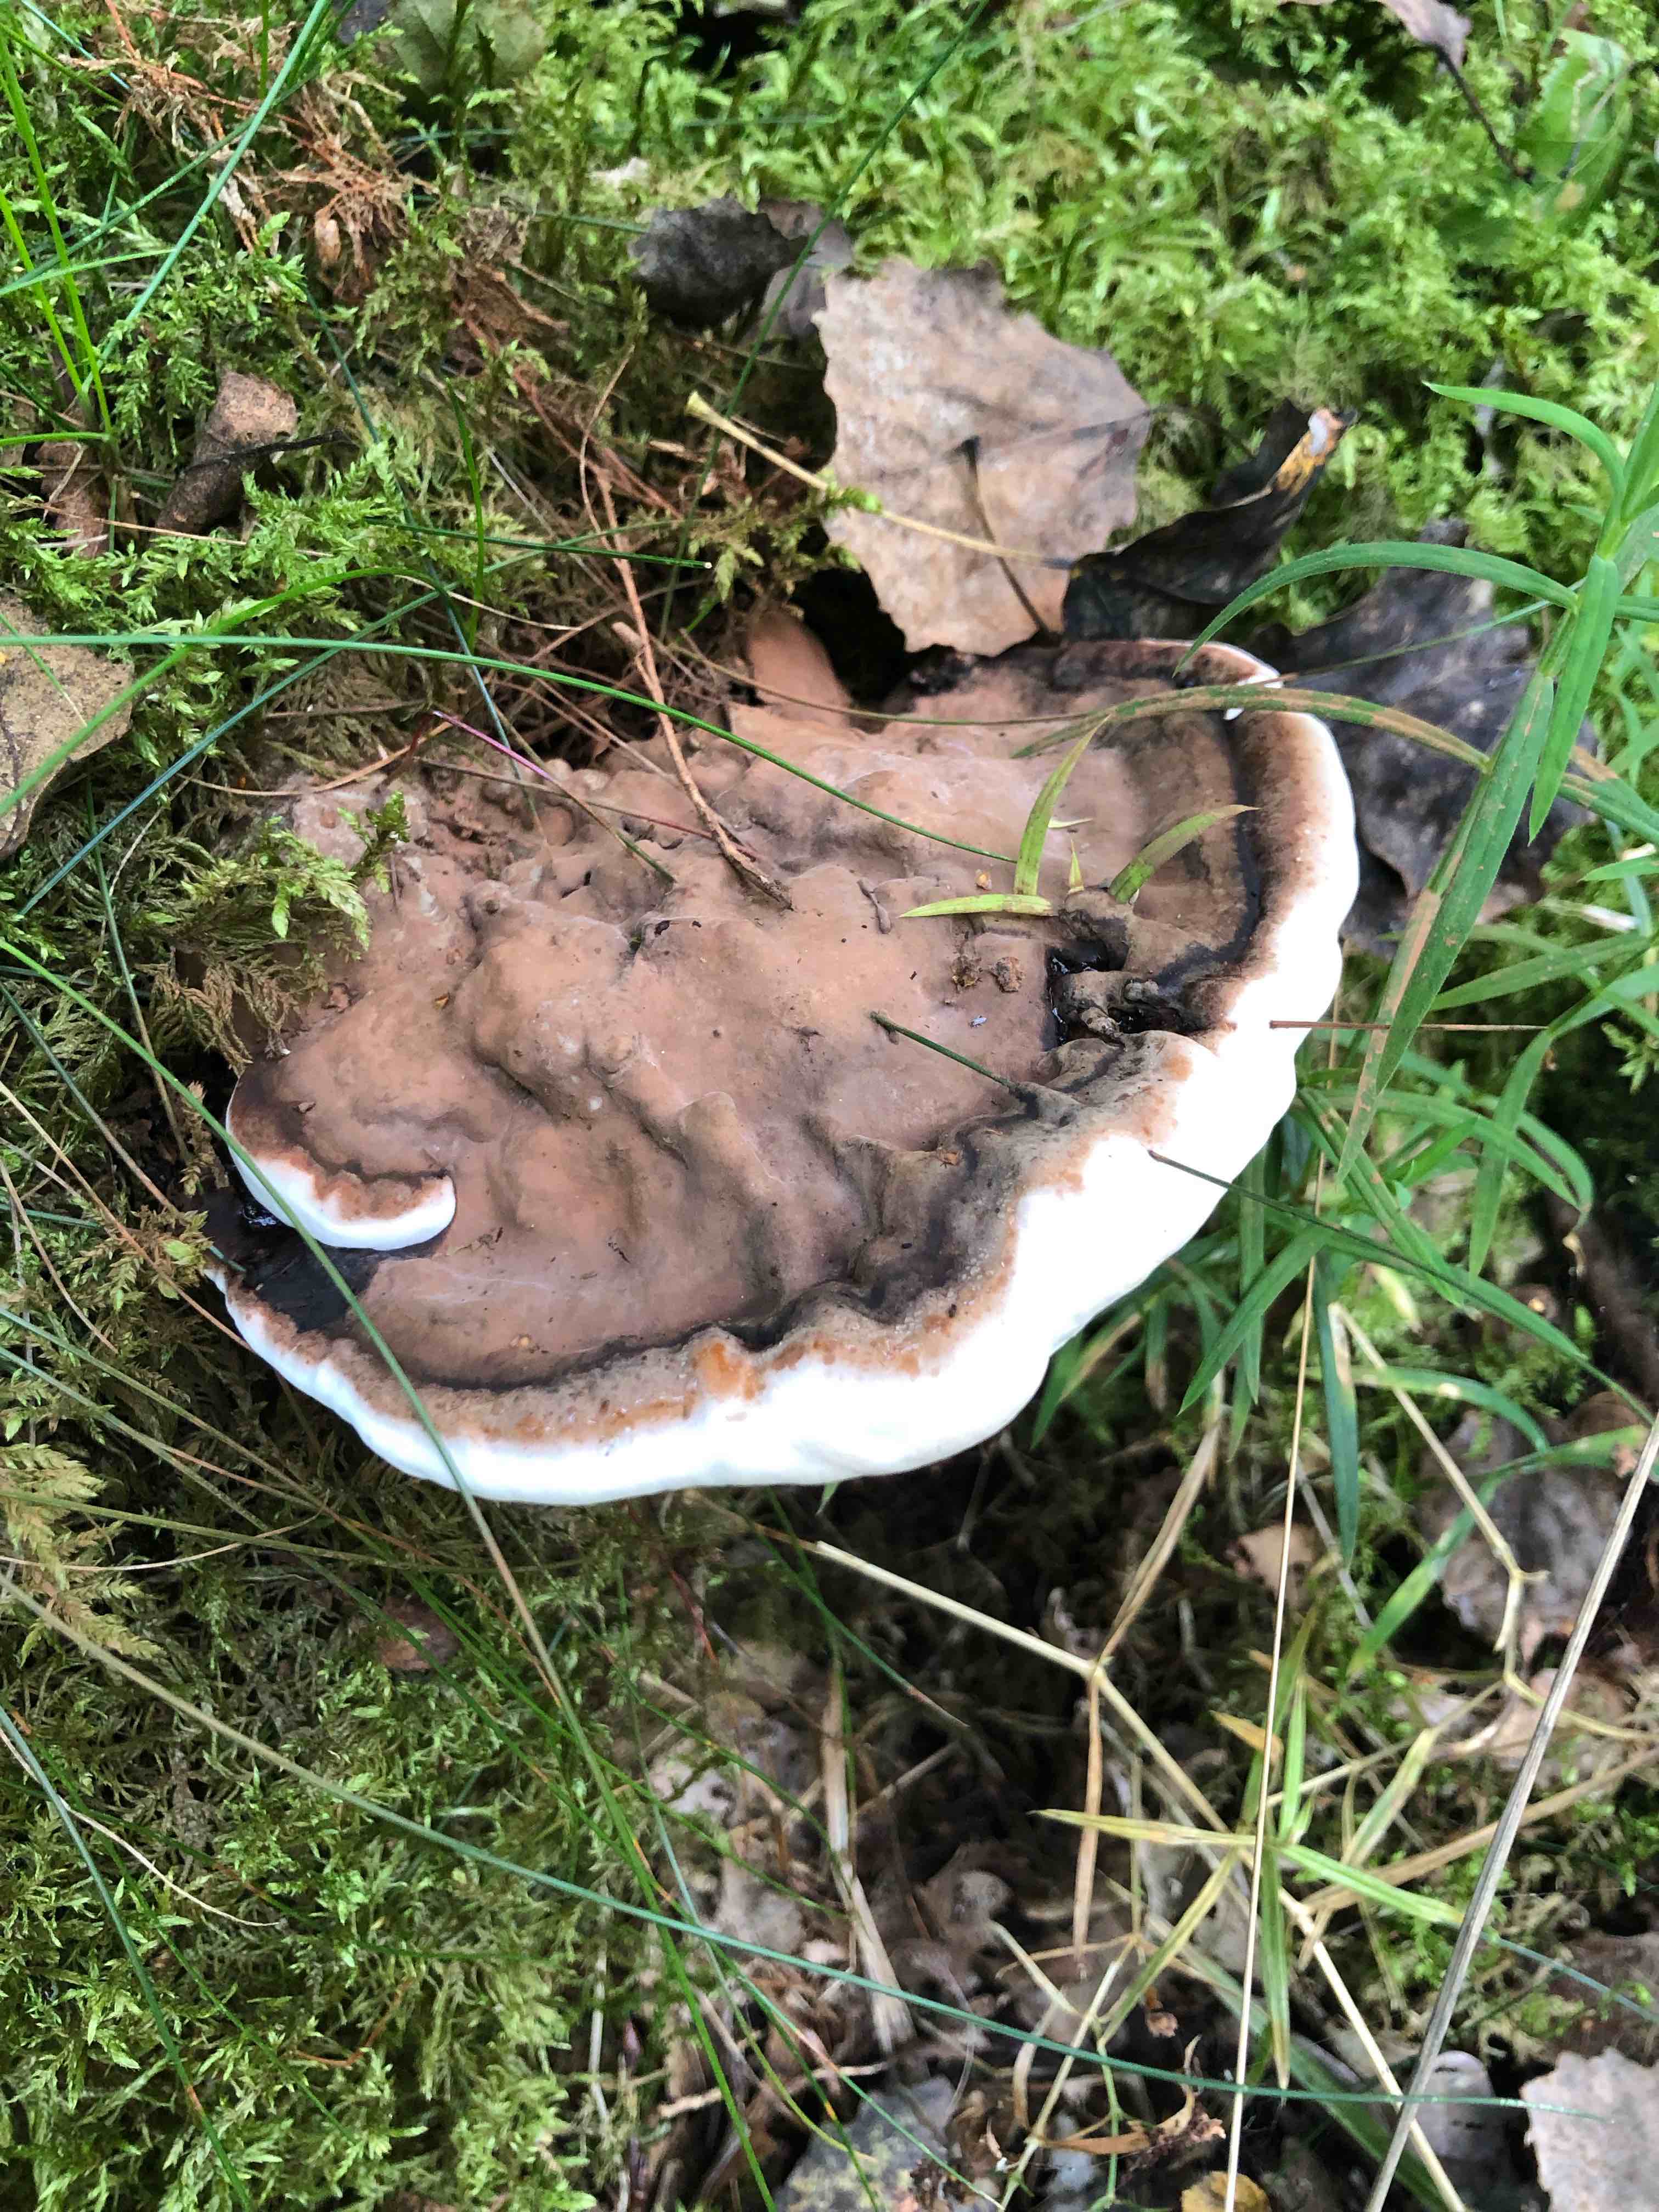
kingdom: Fungi
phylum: Basidiomycota
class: Agaricomycetes
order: Polyporales
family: Polyporaceae
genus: Ganoderma
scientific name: Ganoderma applanatum
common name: flad lakporesvamp
